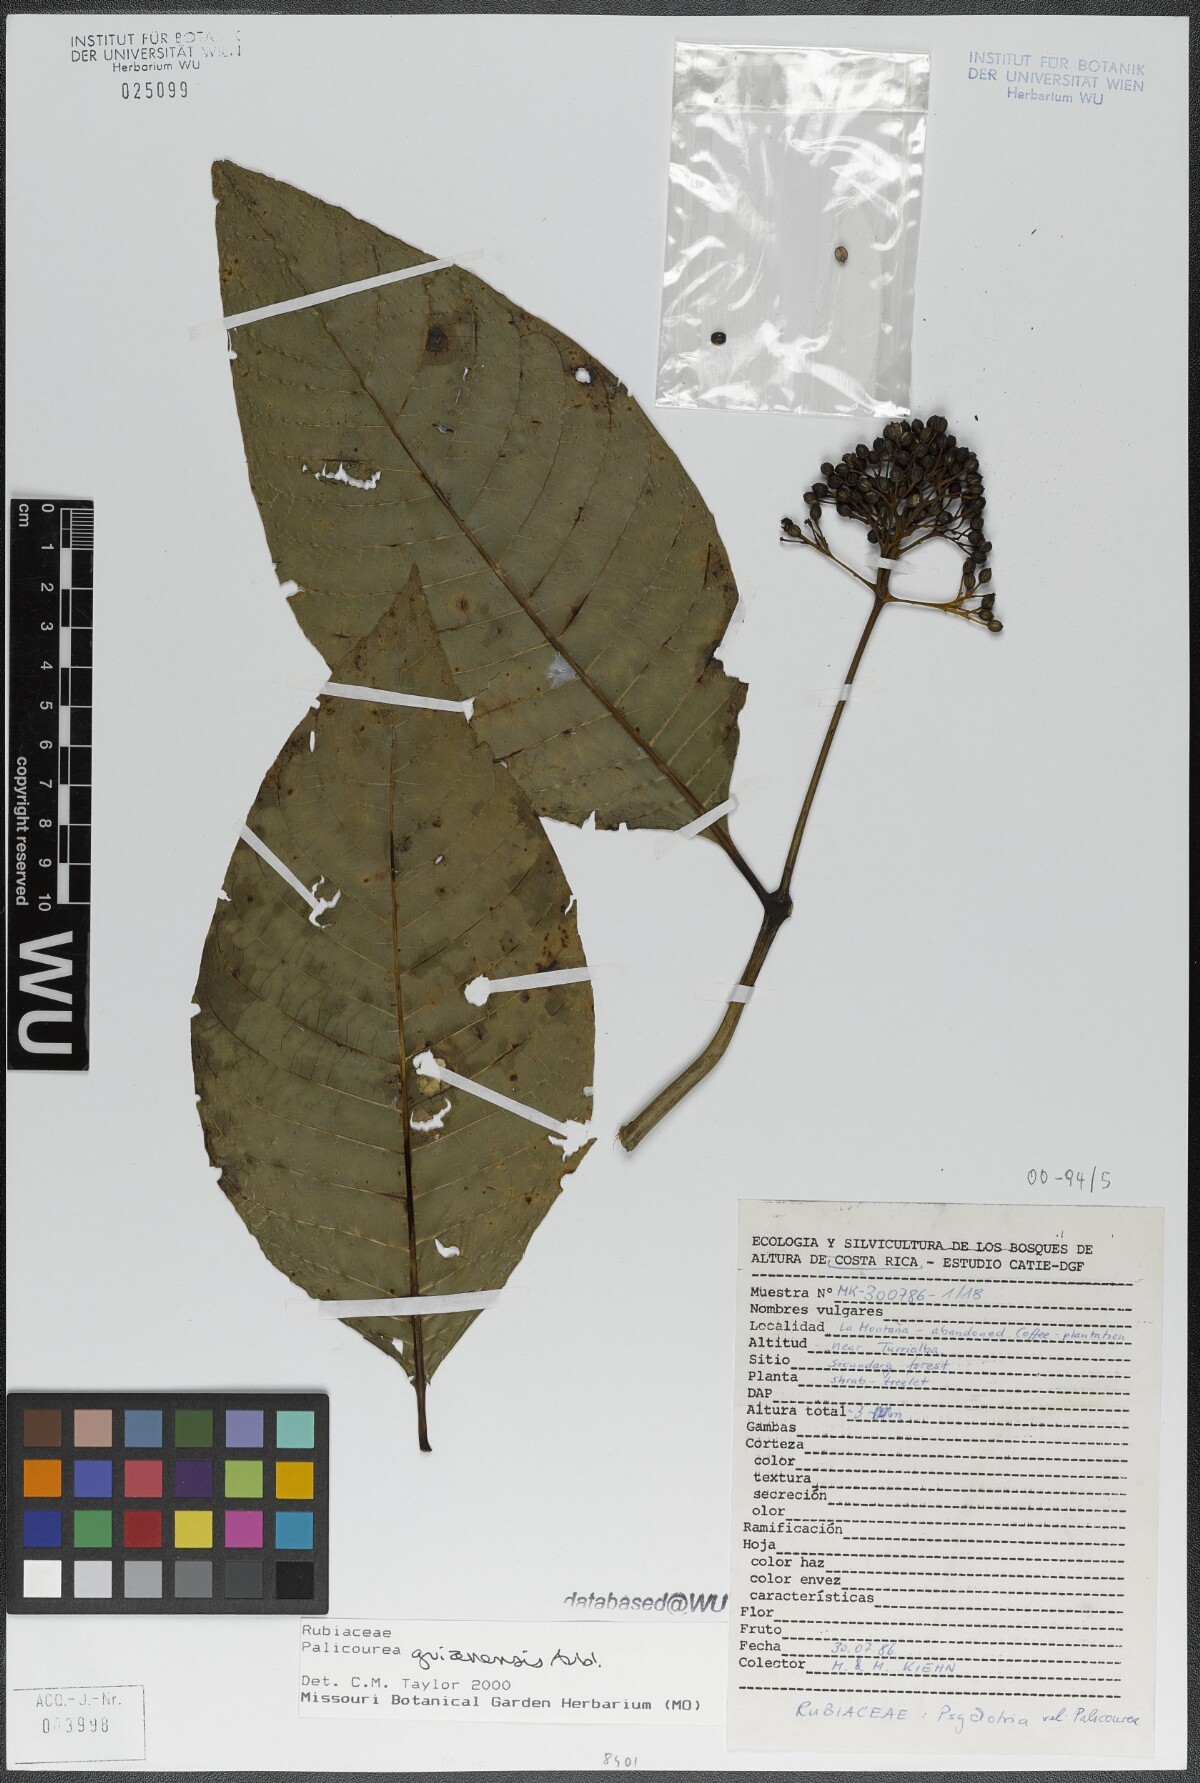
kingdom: Plantae
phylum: Tracheophyta
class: Magnoliopsida
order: Gentianales
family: Rubiaceae
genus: Palicourea
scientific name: Palicourea guianensis
